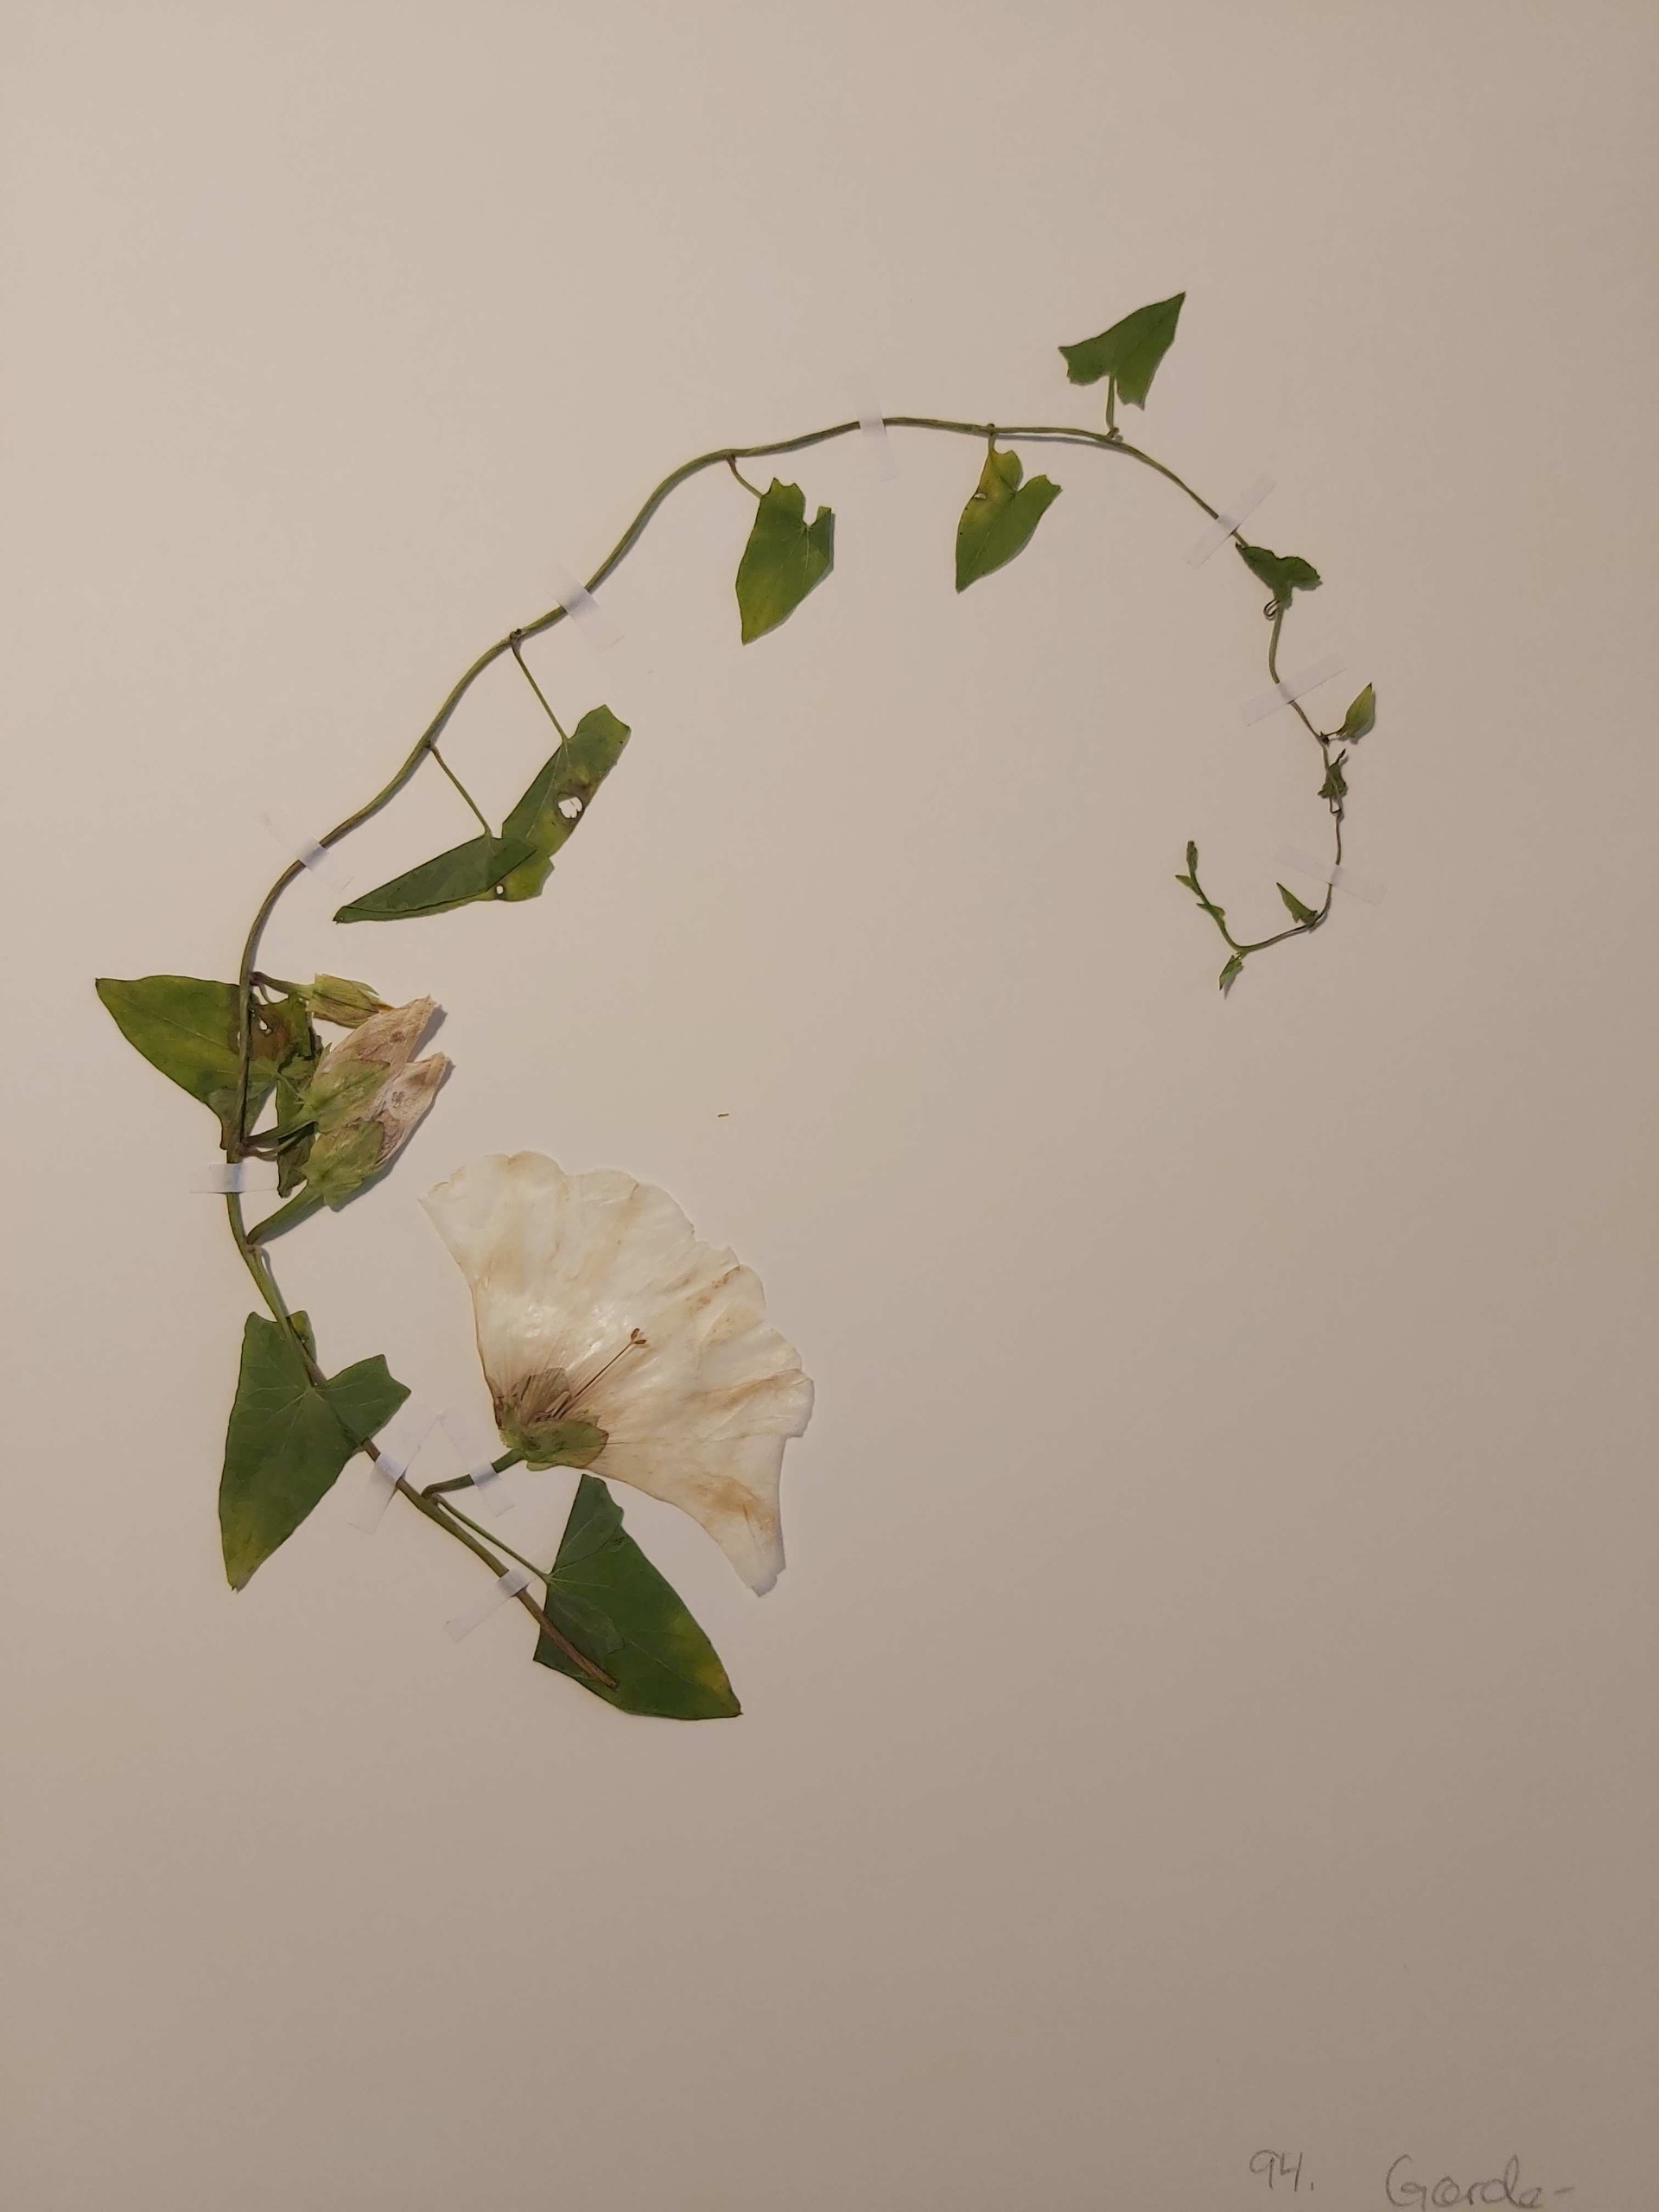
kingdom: Plantae
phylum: Tracheophyta
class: Magnoliopsida
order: Solanales
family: Convolvulaceae
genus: Calystegia
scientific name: Calystegia sepium
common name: Gærde-snerle
